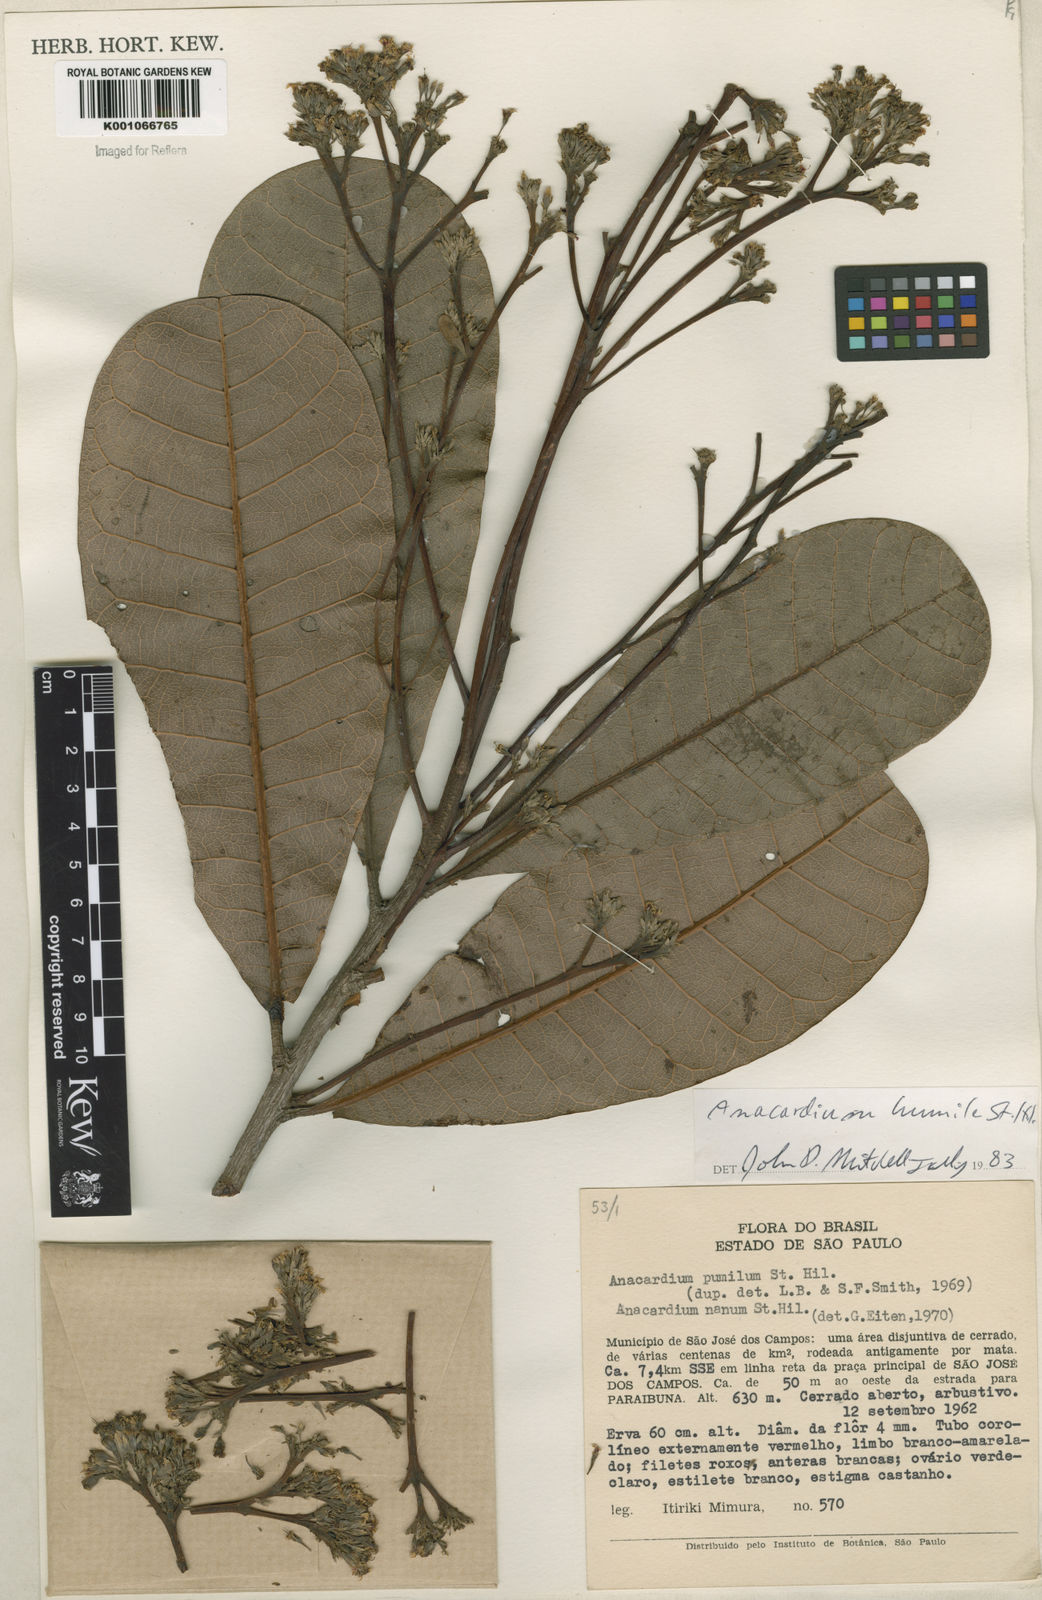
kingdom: Plantae
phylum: Tracheophyta
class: Magnoliopsida
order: Sapindales
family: Anacardiaceae
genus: Anacardium
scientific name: Anacardium humile
